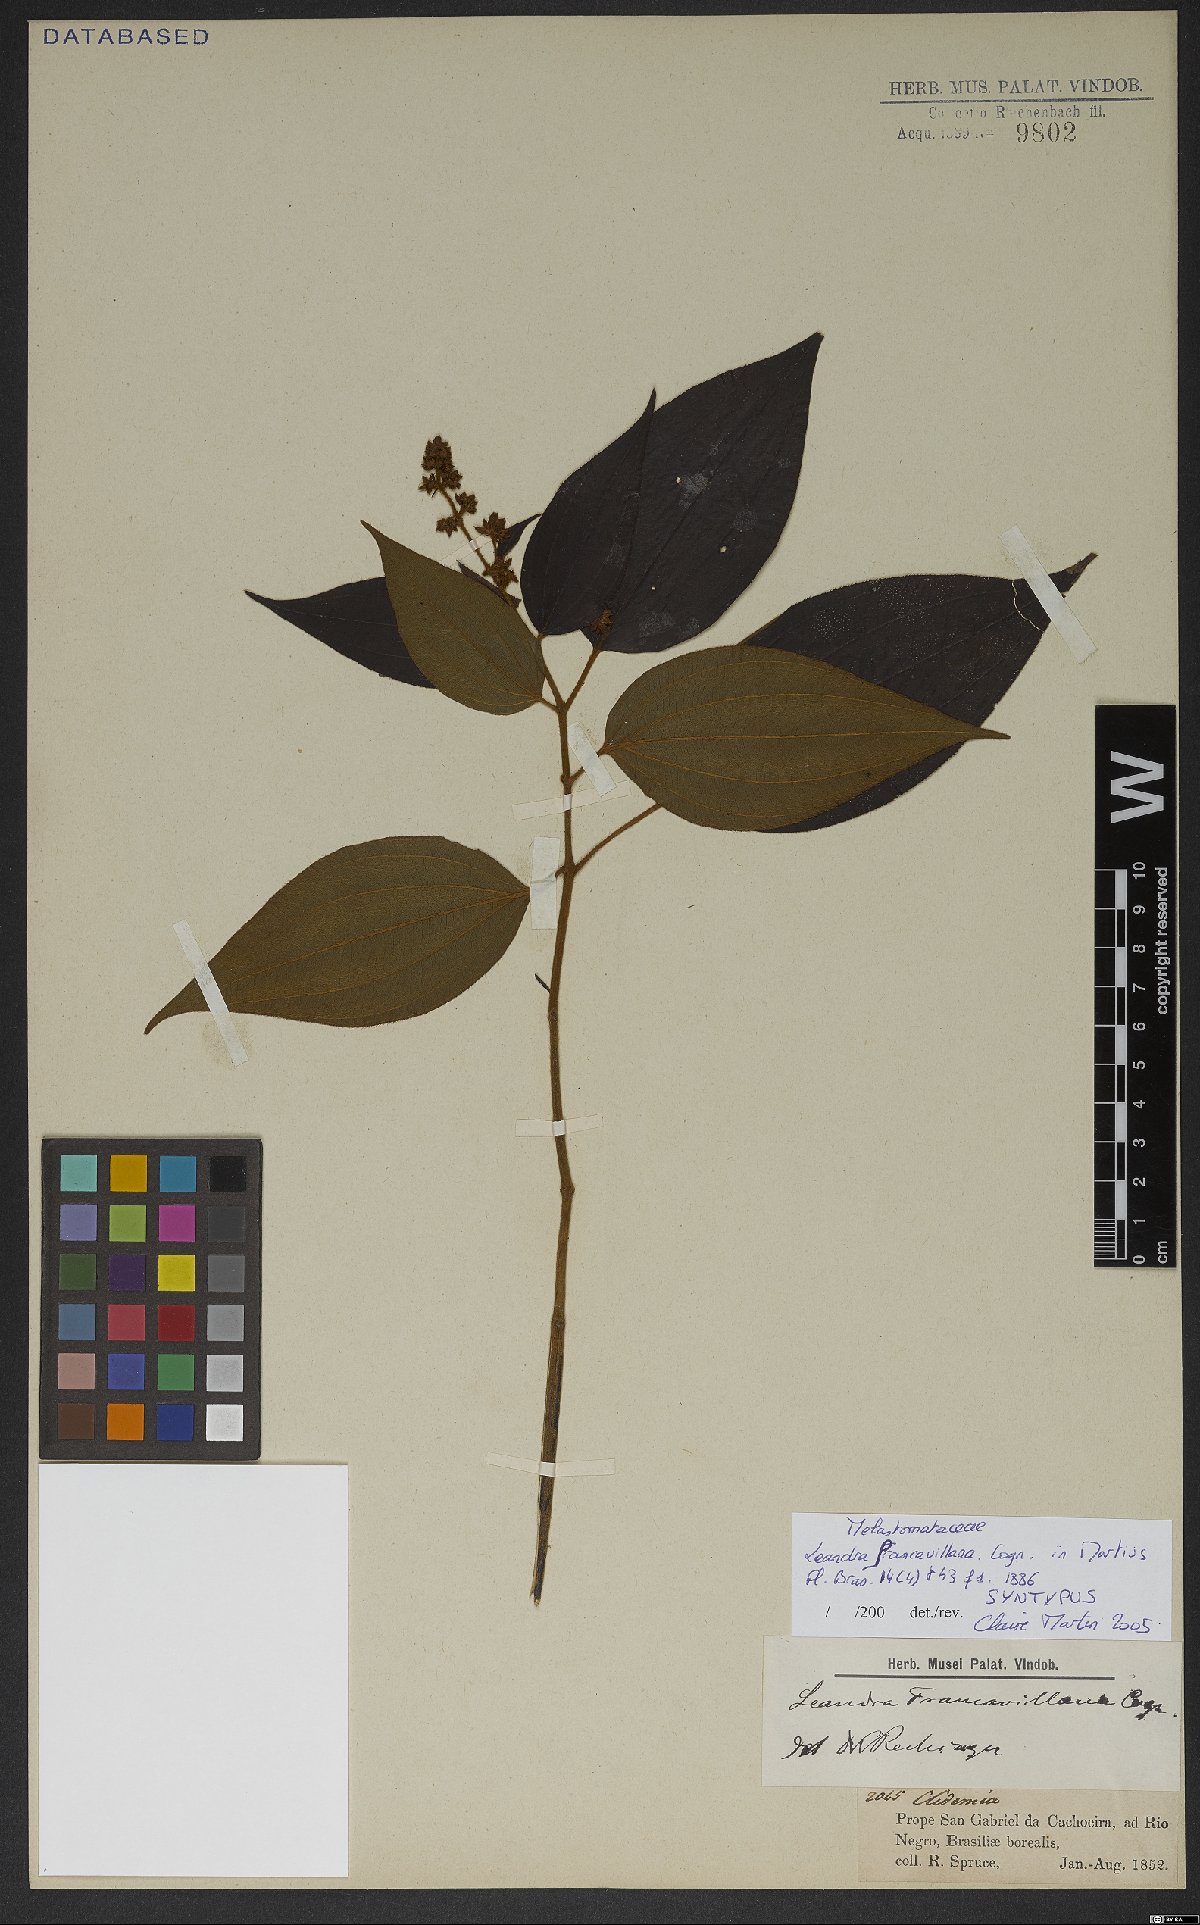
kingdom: Plantae
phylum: Tracheophyta
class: Magnoliopsida
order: Myrtales
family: Melastomataceae
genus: Miconia
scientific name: Miconia secunfrancavillana
